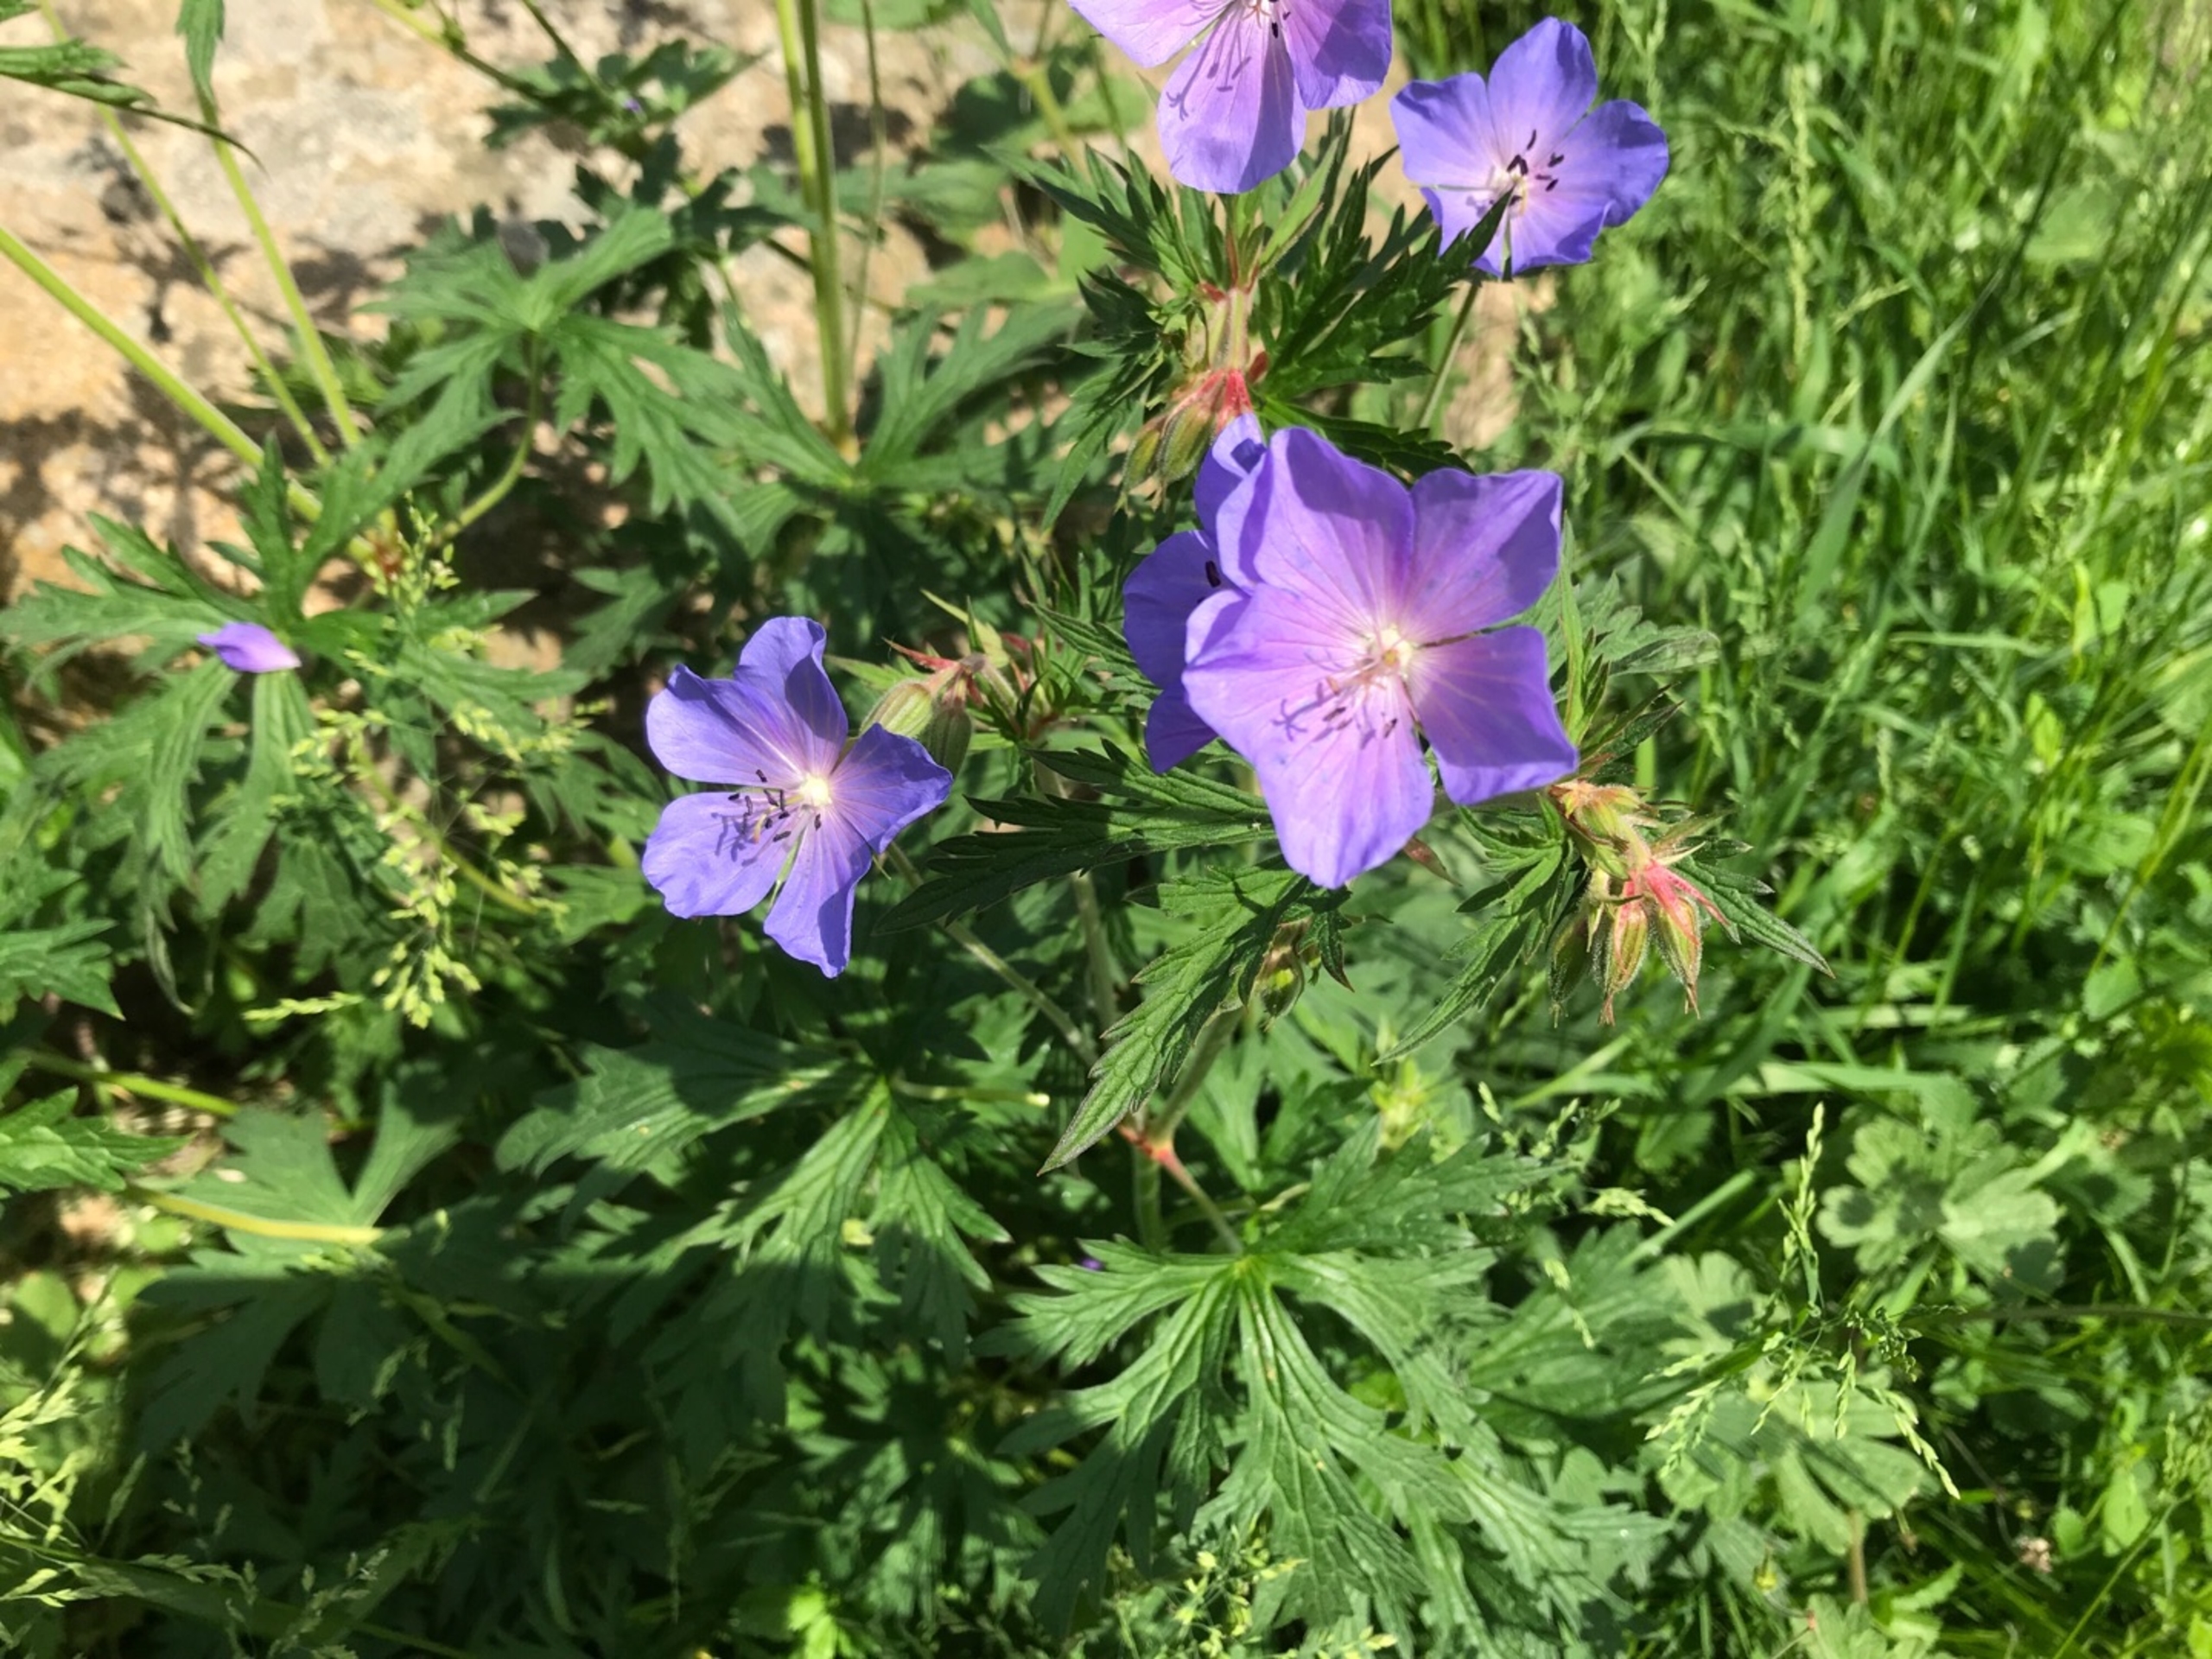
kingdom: Plantae
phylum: Tracheophyta
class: Magnoliopsida
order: Geraniales
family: Geraniaceae
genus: Geranium
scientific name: Geranium pratense
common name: Eng-storkenæb
